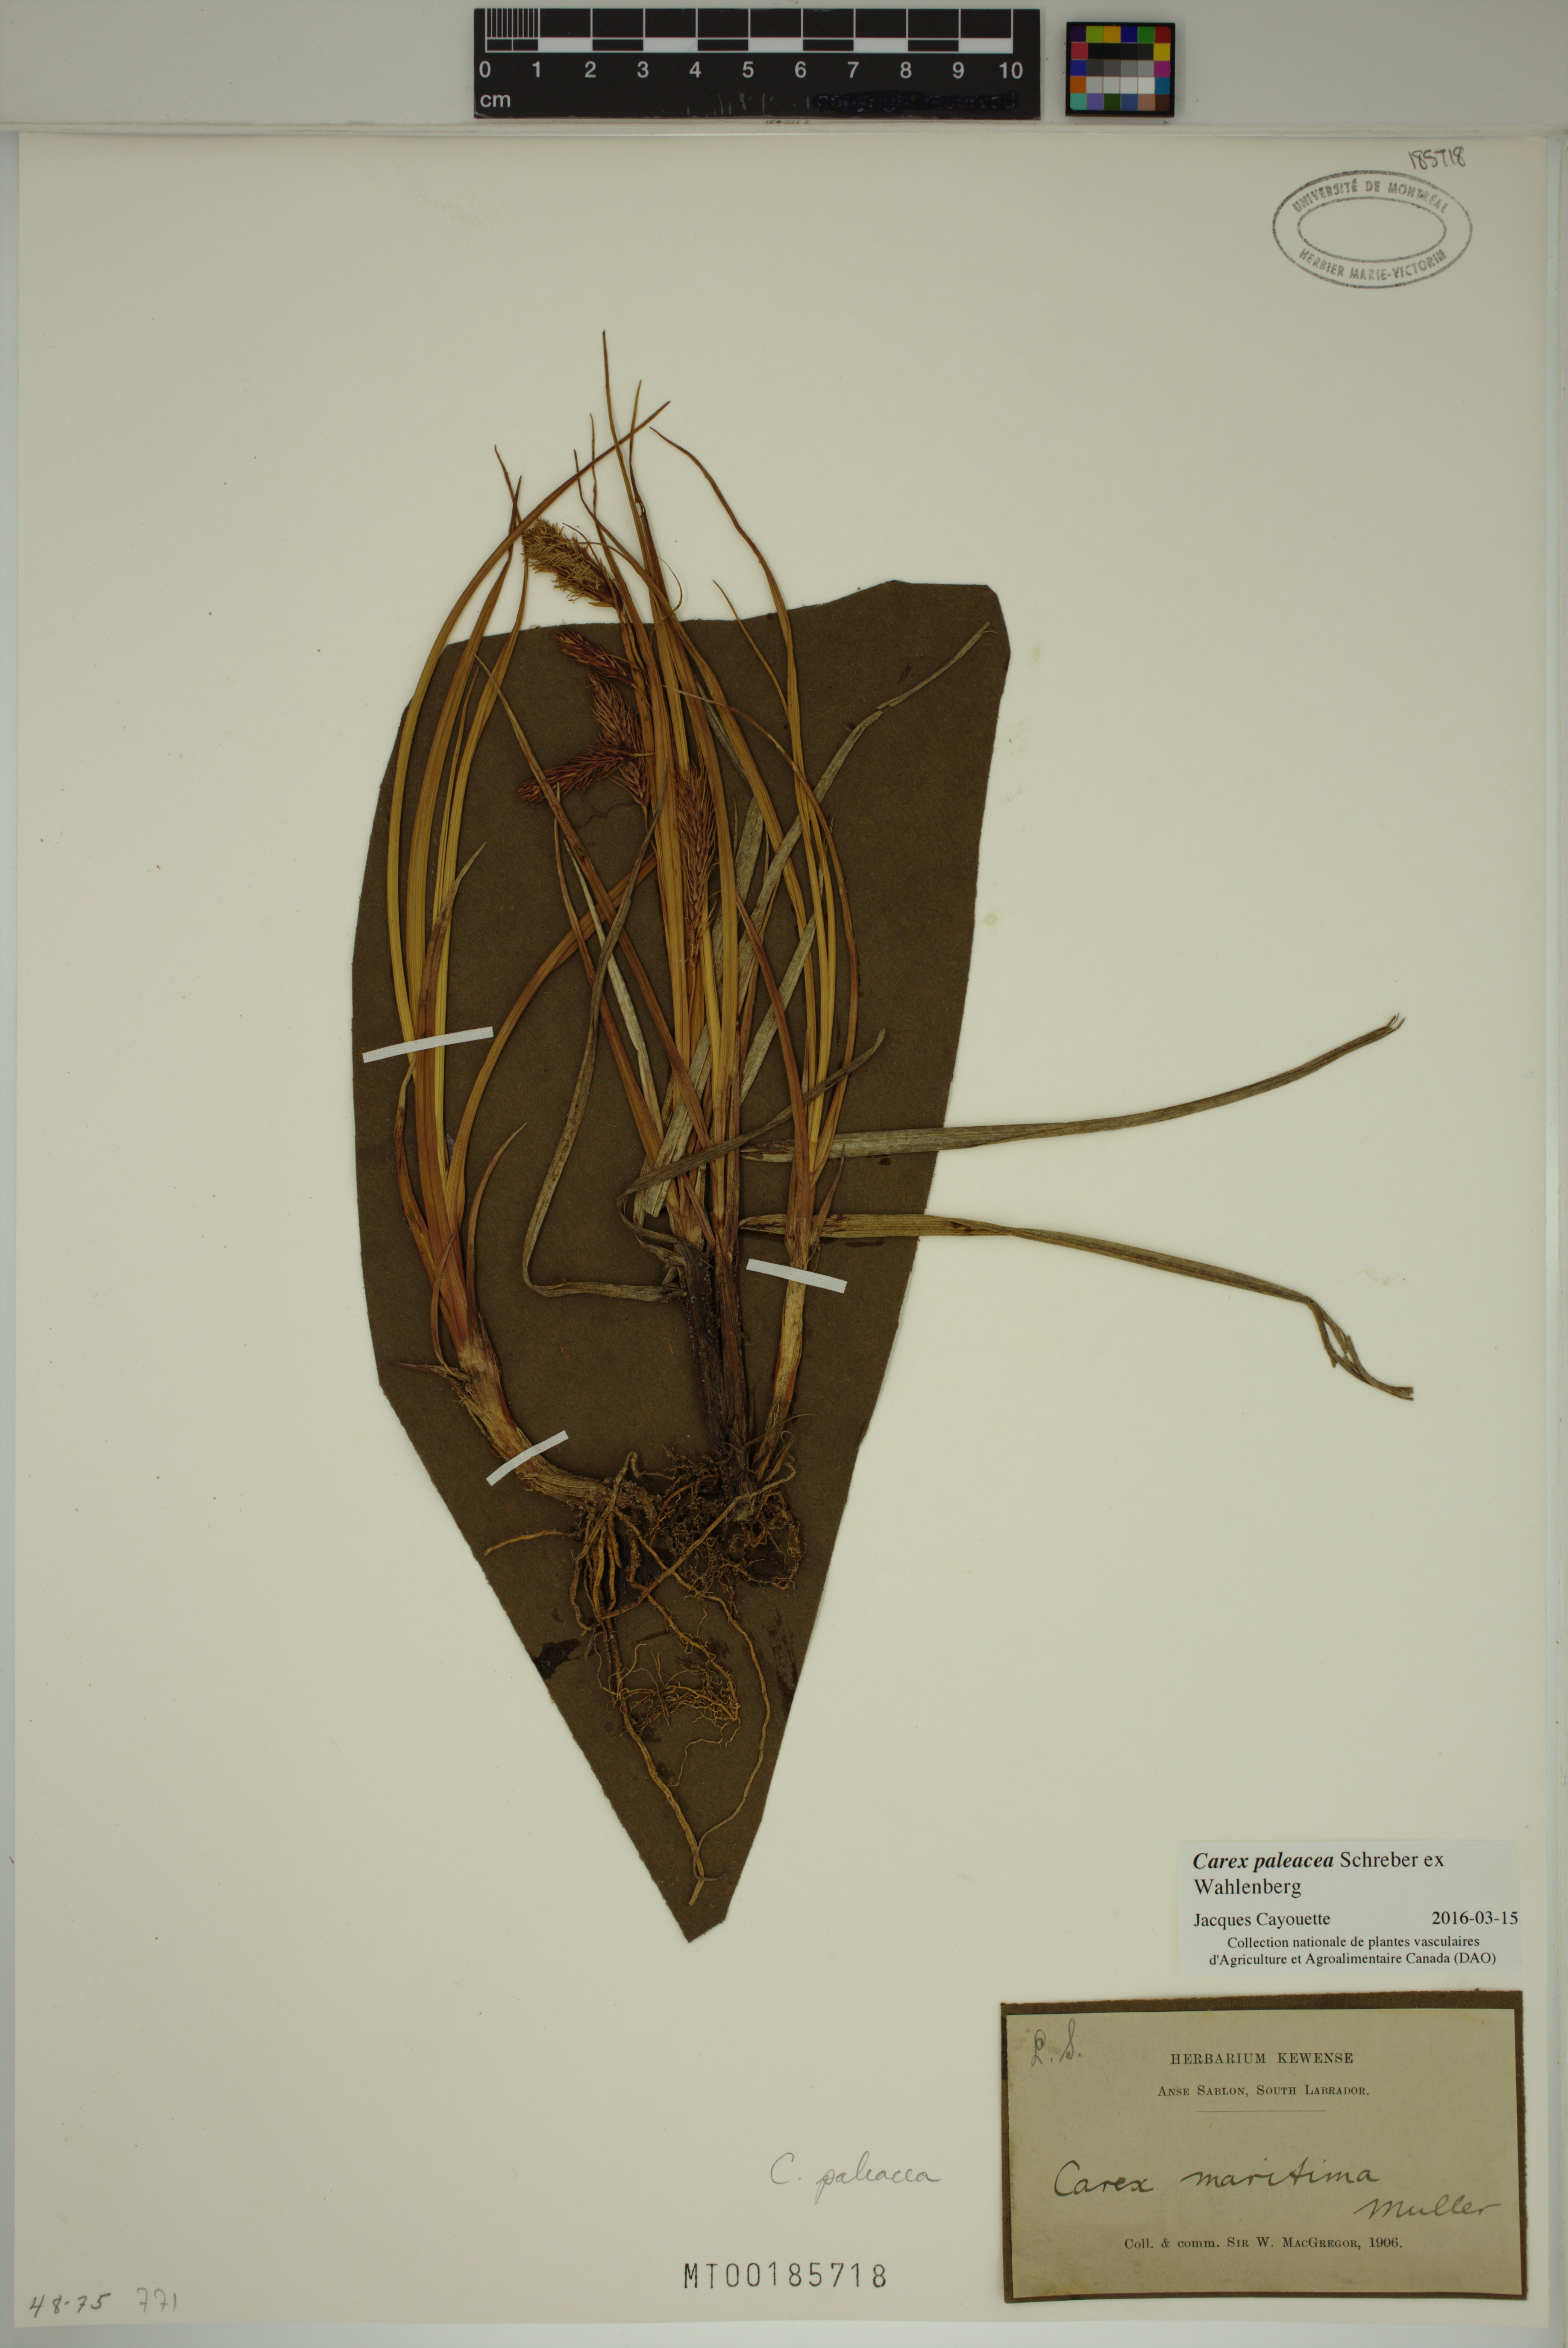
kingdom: Plantae
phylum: Tracheophyta
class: Liliopsida
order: Poales
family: Cyperaceae
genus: Carex
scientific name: Carex paleacea
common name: Chaffy sedge
